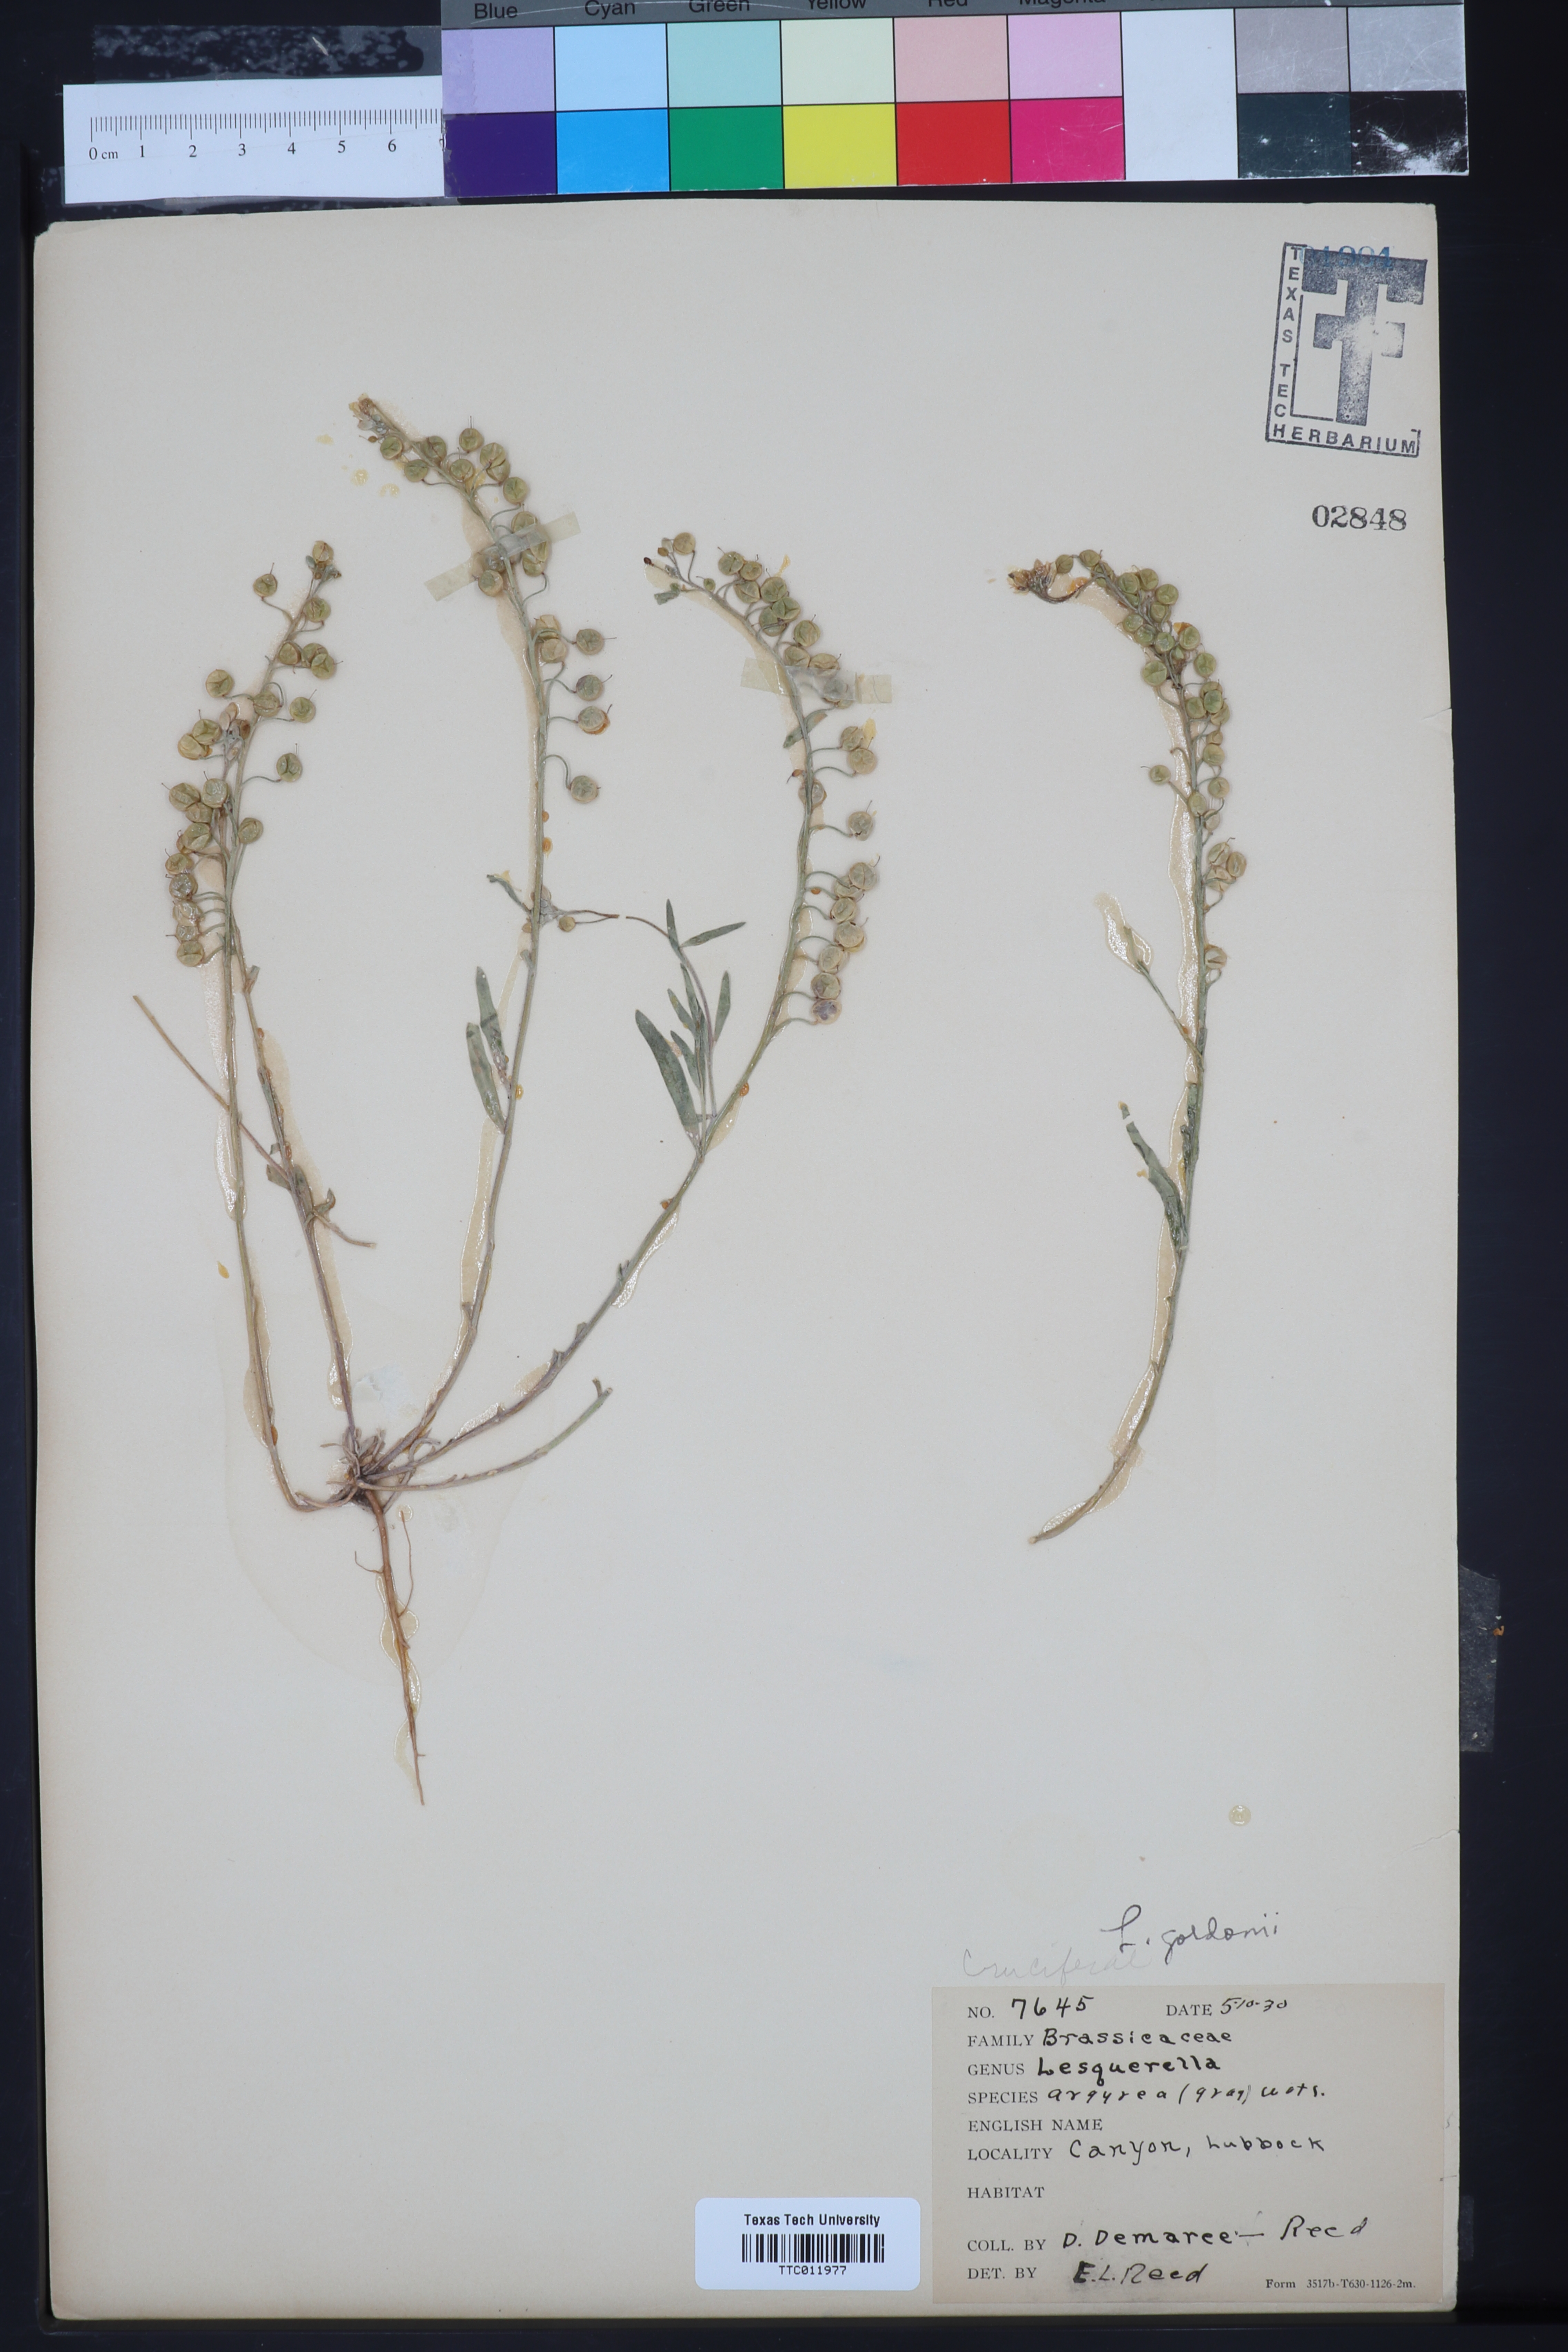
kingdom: Plantae
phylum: Tracheophyta
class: Magnoliopsida
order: Brassicales
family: Brassicaceae
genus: Physaria
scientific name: Physaria gordonii
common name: Gordon's bladderpod
